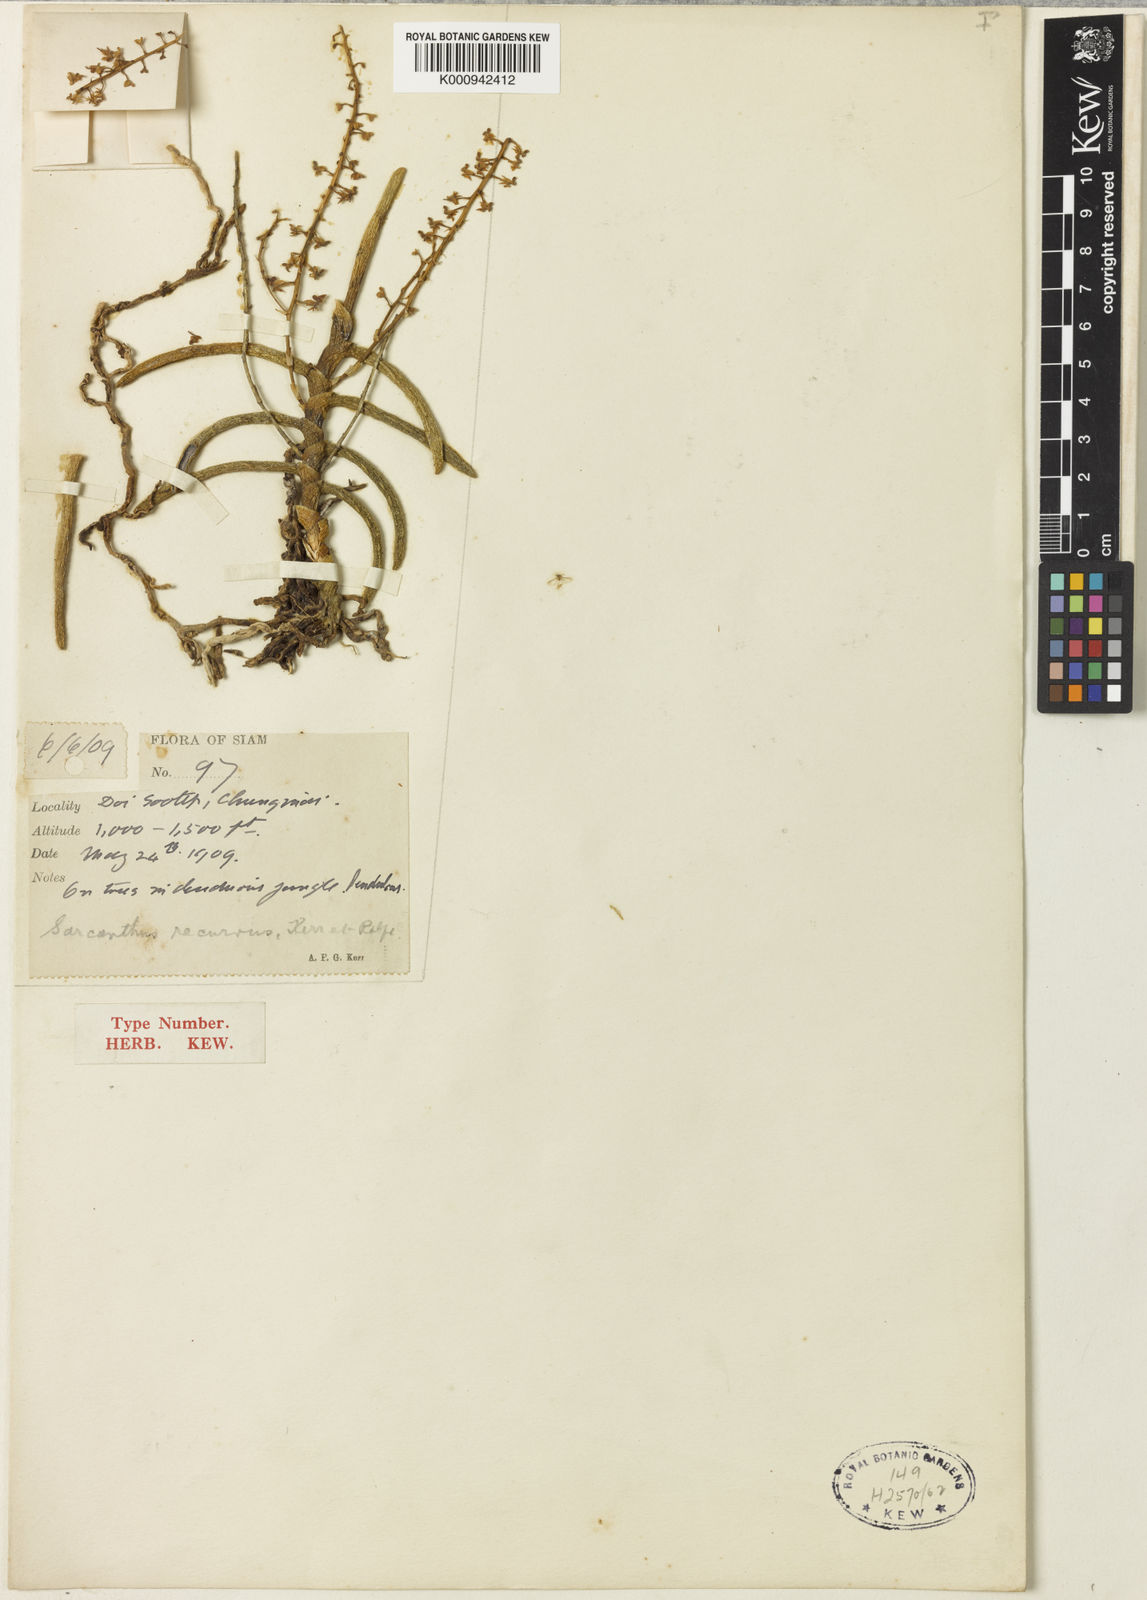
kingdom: Plantae
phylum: Tracheophyta
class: Liliopsida
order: Asparagales
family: Orchidaceae
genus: Cleisostoma
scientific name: Cleisostoma arietinum
